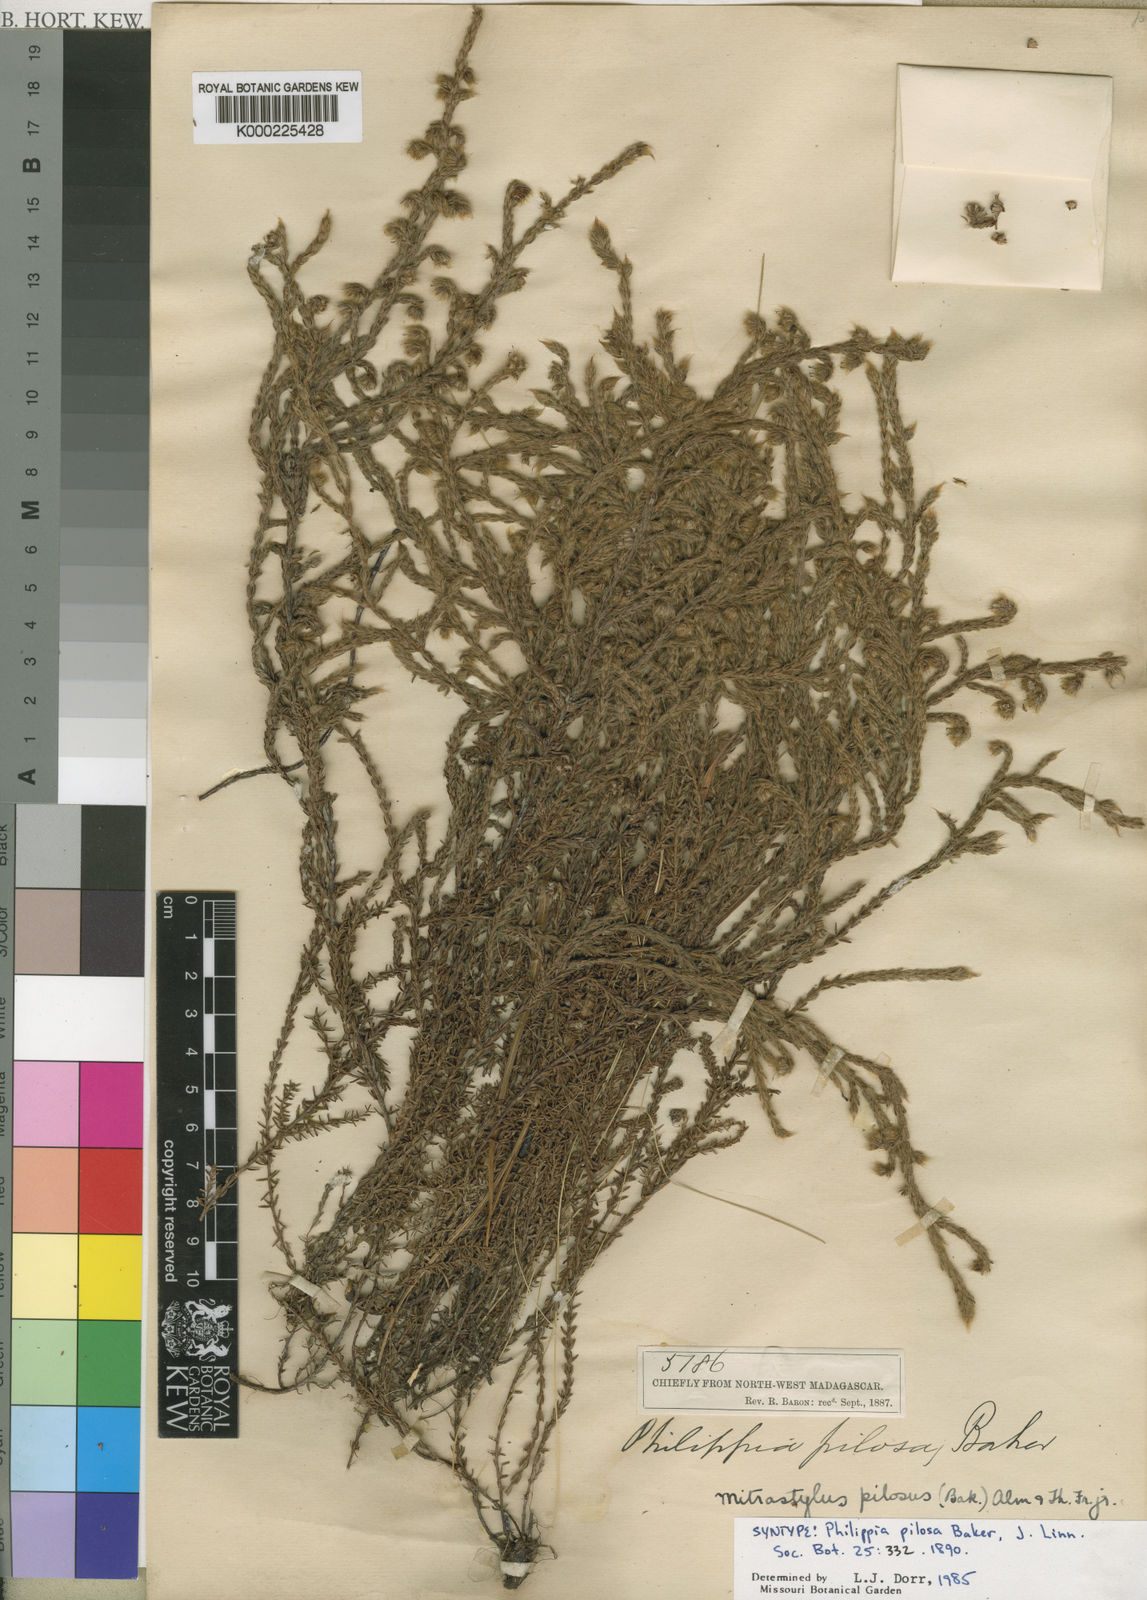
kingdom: Plantae
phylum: Tracheophyta
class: Magnoliopsida
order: Ericales
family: Ericaceae
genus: Erica
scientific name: Erica madagascariensis
